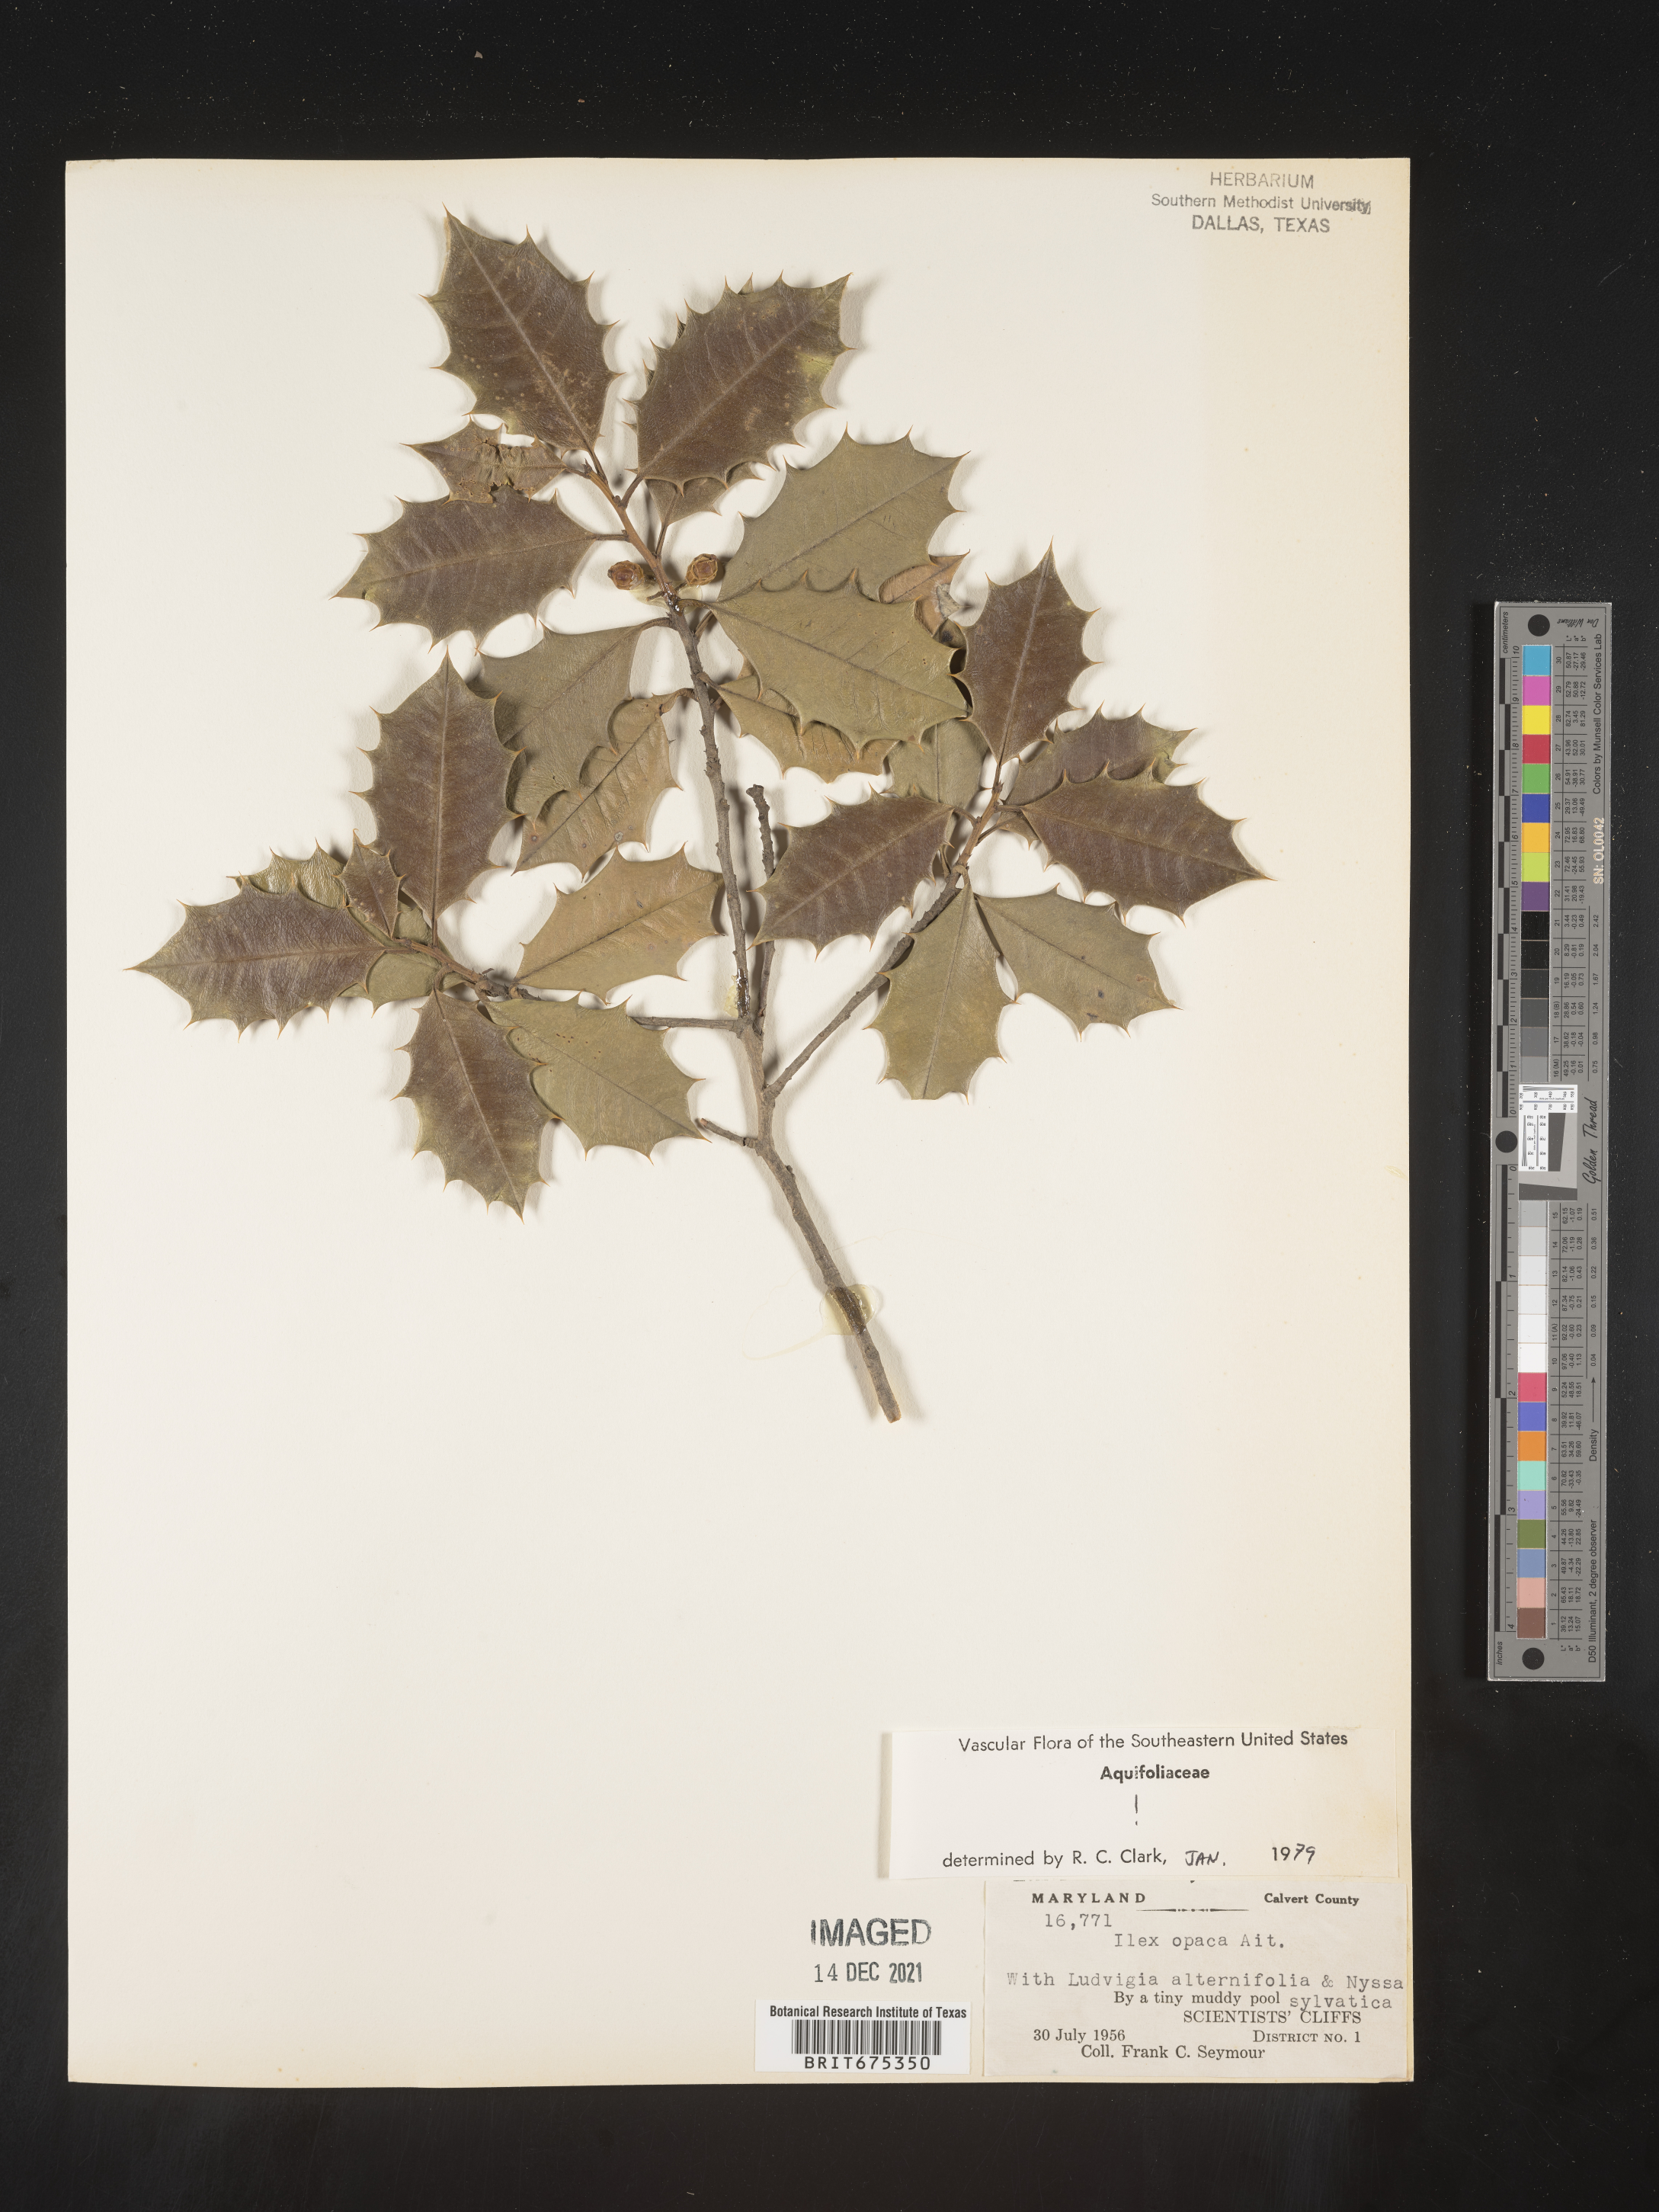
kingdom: Plantae
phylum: Tracheophyta
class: Magnoliopsida
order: Aquifoliales
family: Aquifoliaceae
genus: Ilex
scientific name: Ilex opaca
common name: American holly
